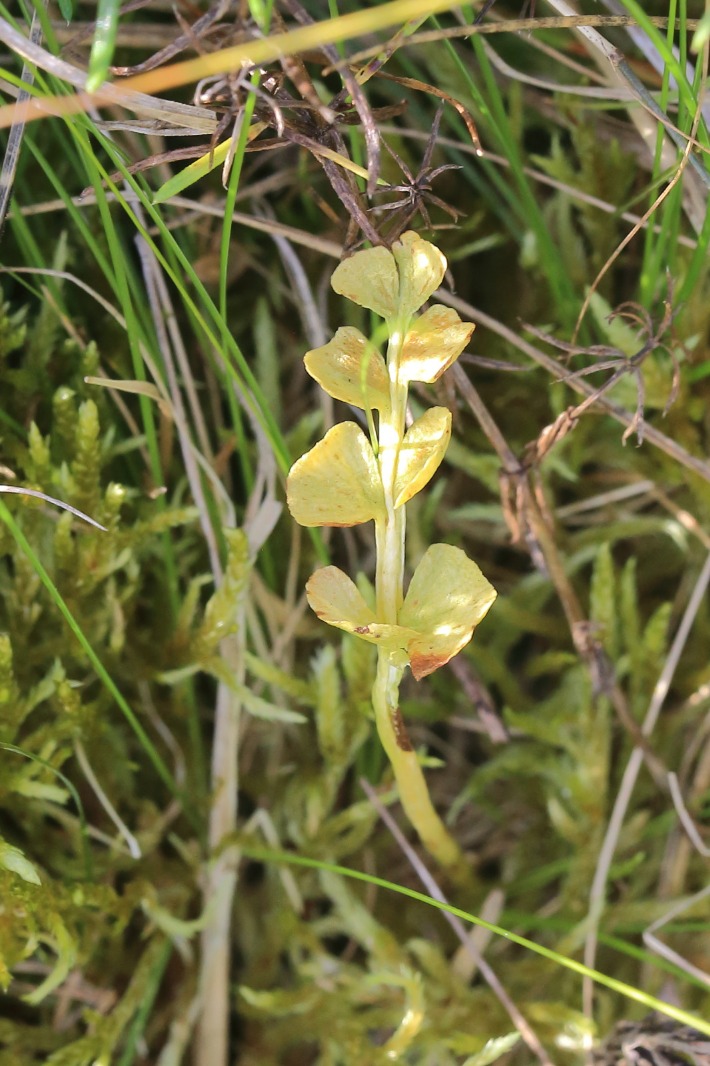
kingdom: Plantae
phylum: Tracheophyta
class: Polypodiopsida
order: Ophioglossales
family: Ophioglossaceae
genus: Botrychium
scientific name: Botrychium lunaria
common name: Almindelig månerude
